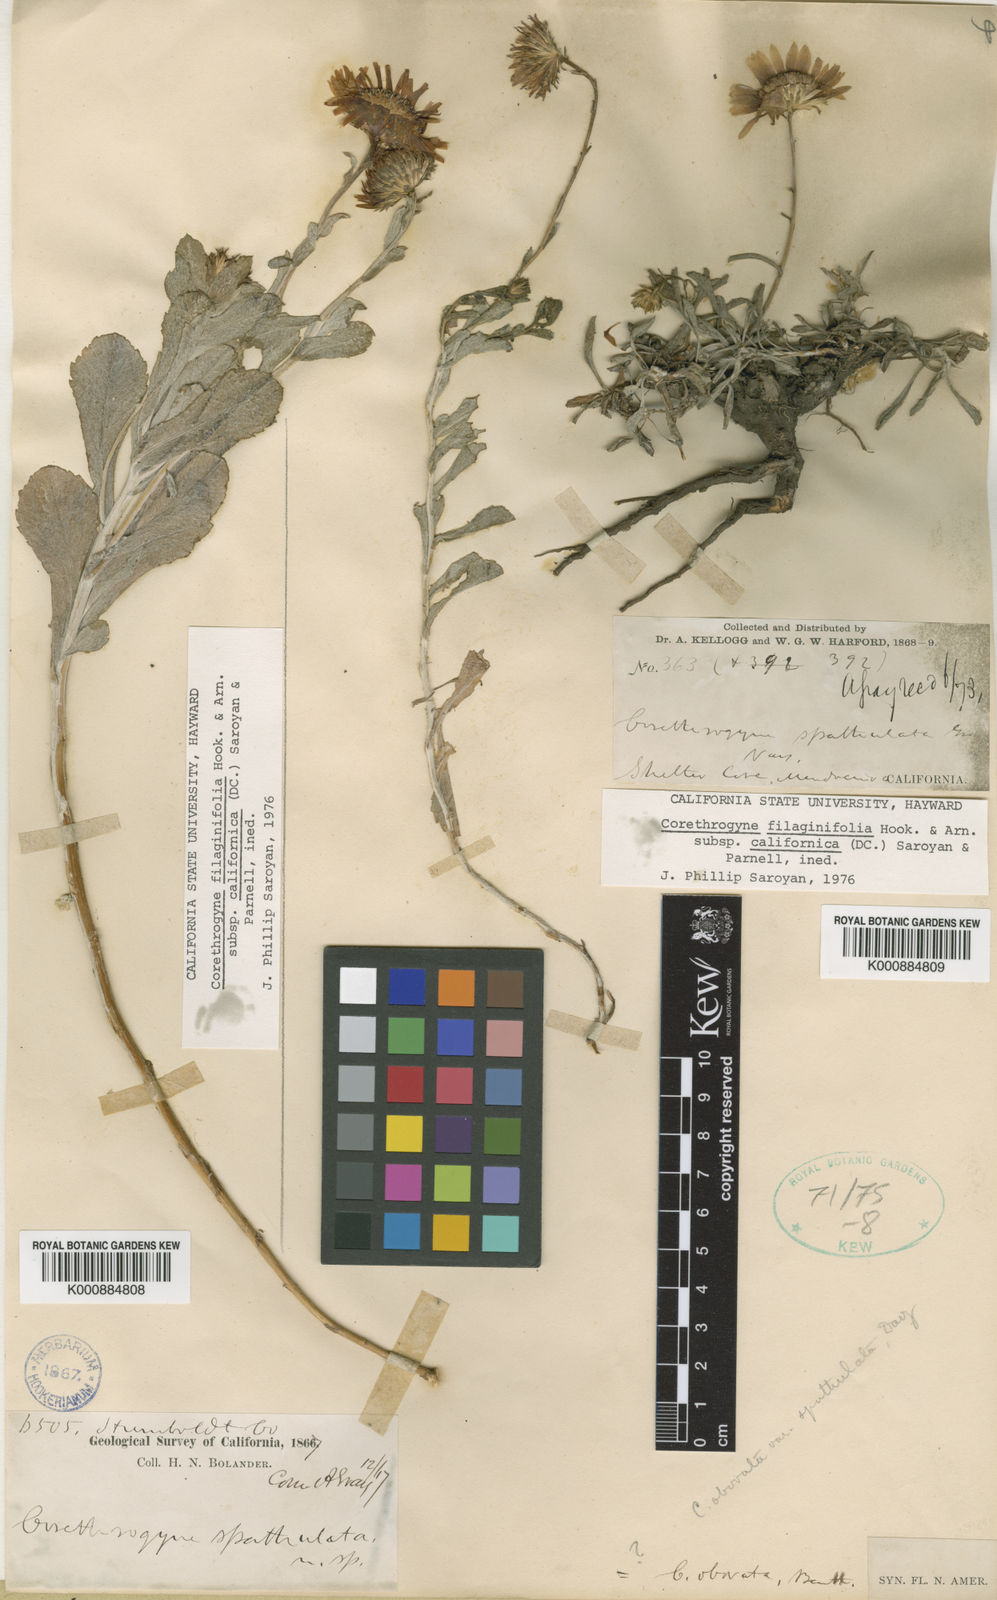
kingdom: Plantae
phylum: Tracheophyta
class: Magnoliopsida
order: Asterales
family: Asteraceae
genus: Corethrogyne
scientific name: Corethrogyne filaginifolia
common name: Sand-aster
